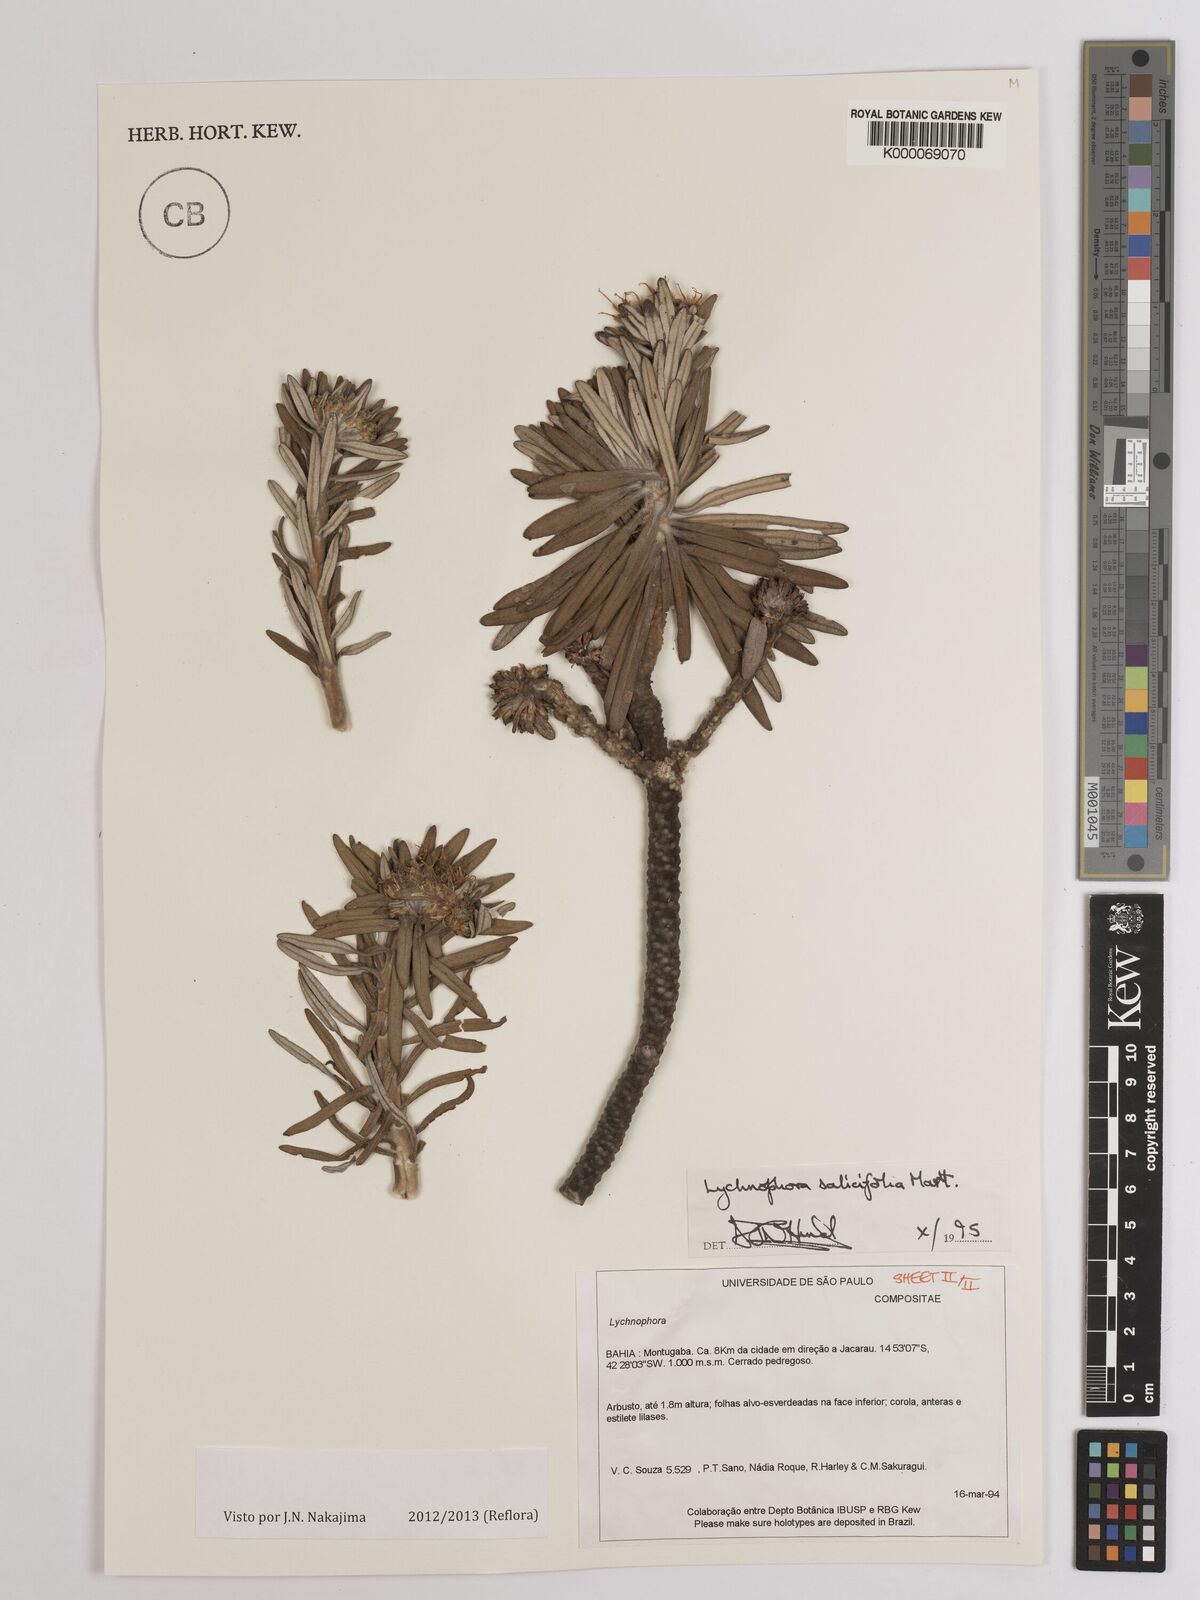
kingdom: Plantae
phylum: Tracheophyta
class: Magnoliopsida
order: Asterales
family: Asteraceae
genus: Lychnophora
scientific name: Lychnophora salicifolia
